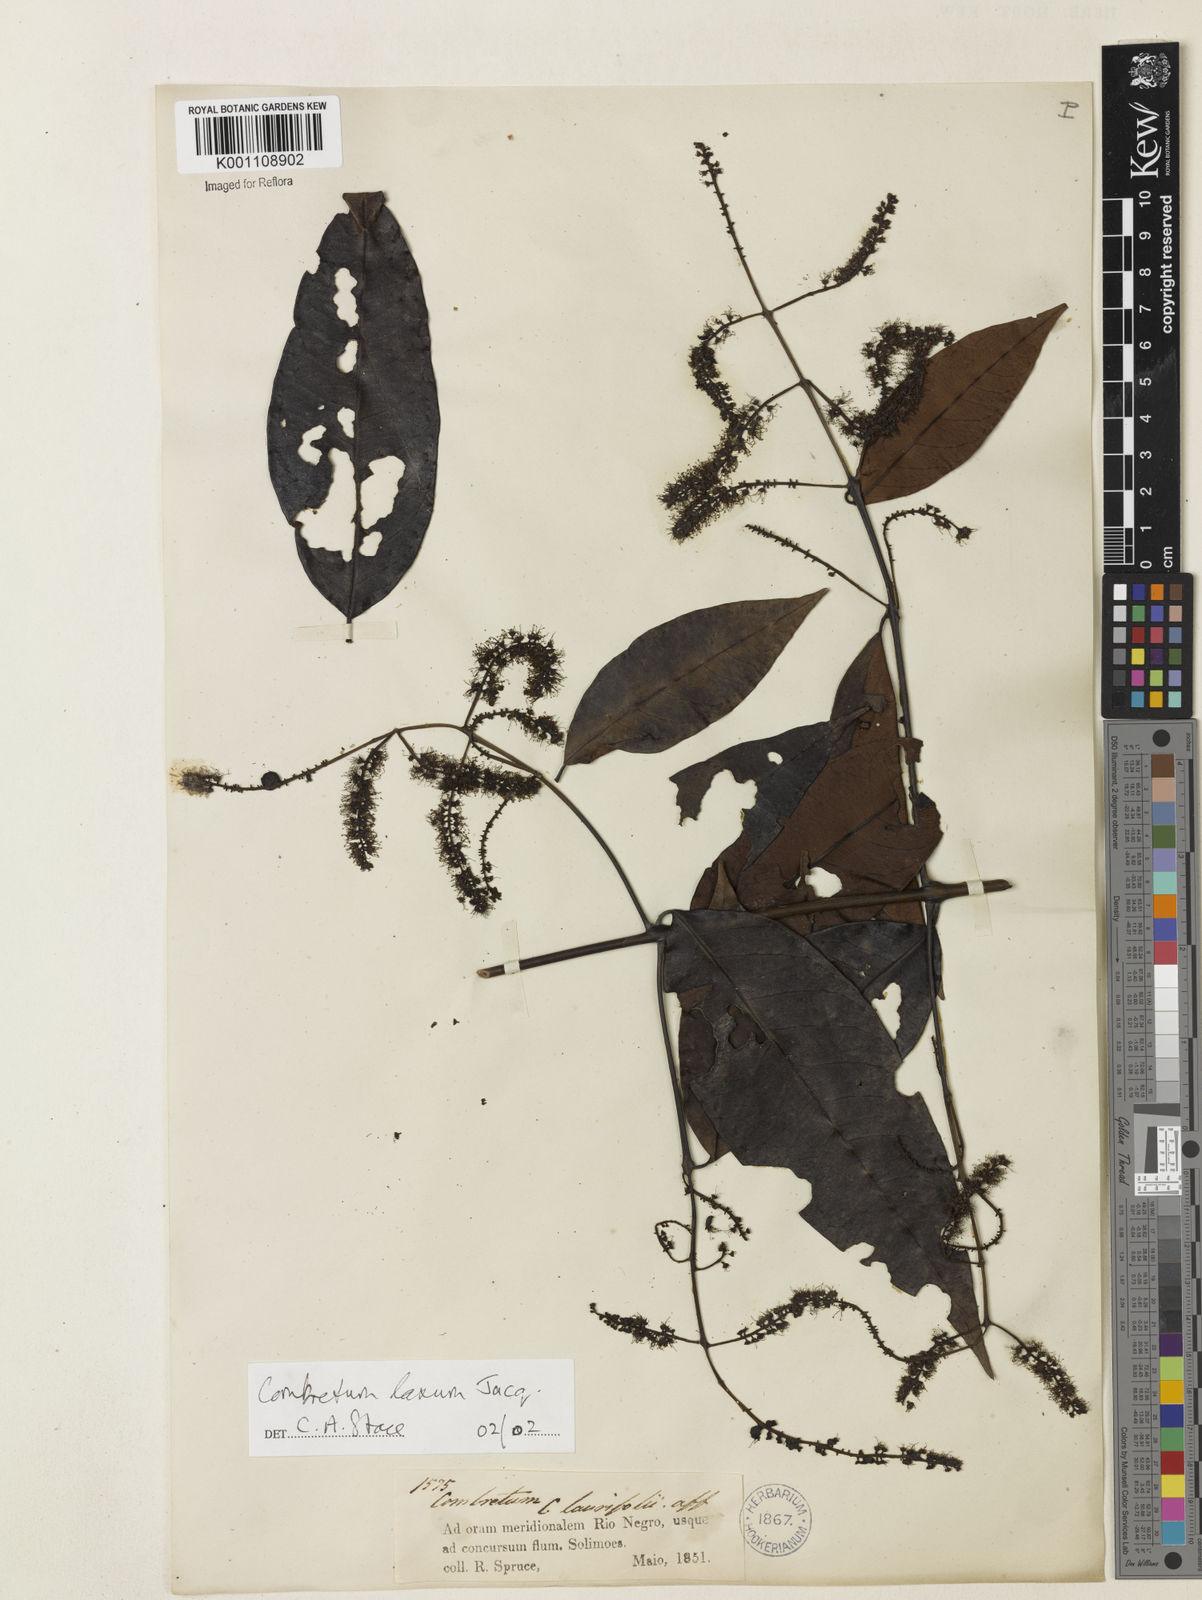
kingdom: Plantae
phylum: Tracheophyta
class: Magnoliopsida
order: Myrtales
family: Combretaceae
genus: Combretum
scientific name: Combretum laxum
